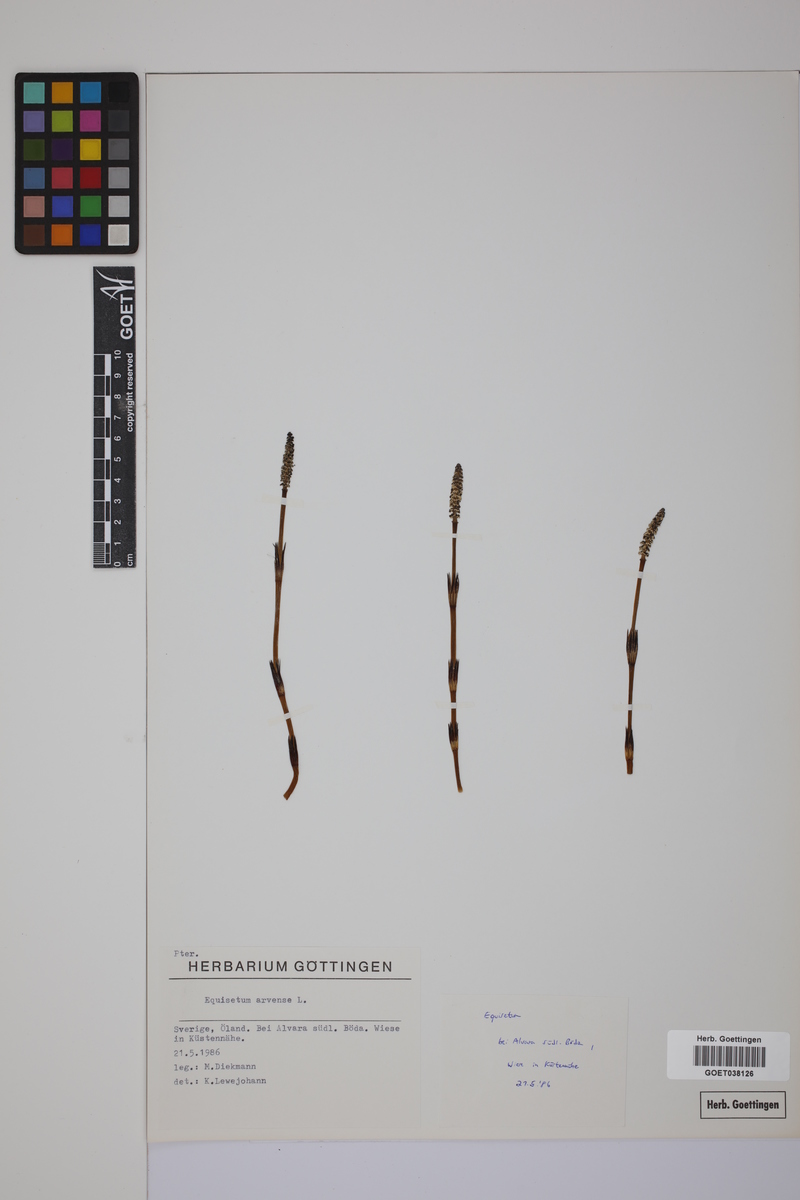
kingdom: Plantae
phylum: Tracheophyta
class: Polypodiopsida
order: Equisetales
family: Equisetaceae
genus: Equisetum
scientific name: Equisetum arvense
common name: Field horsetail
